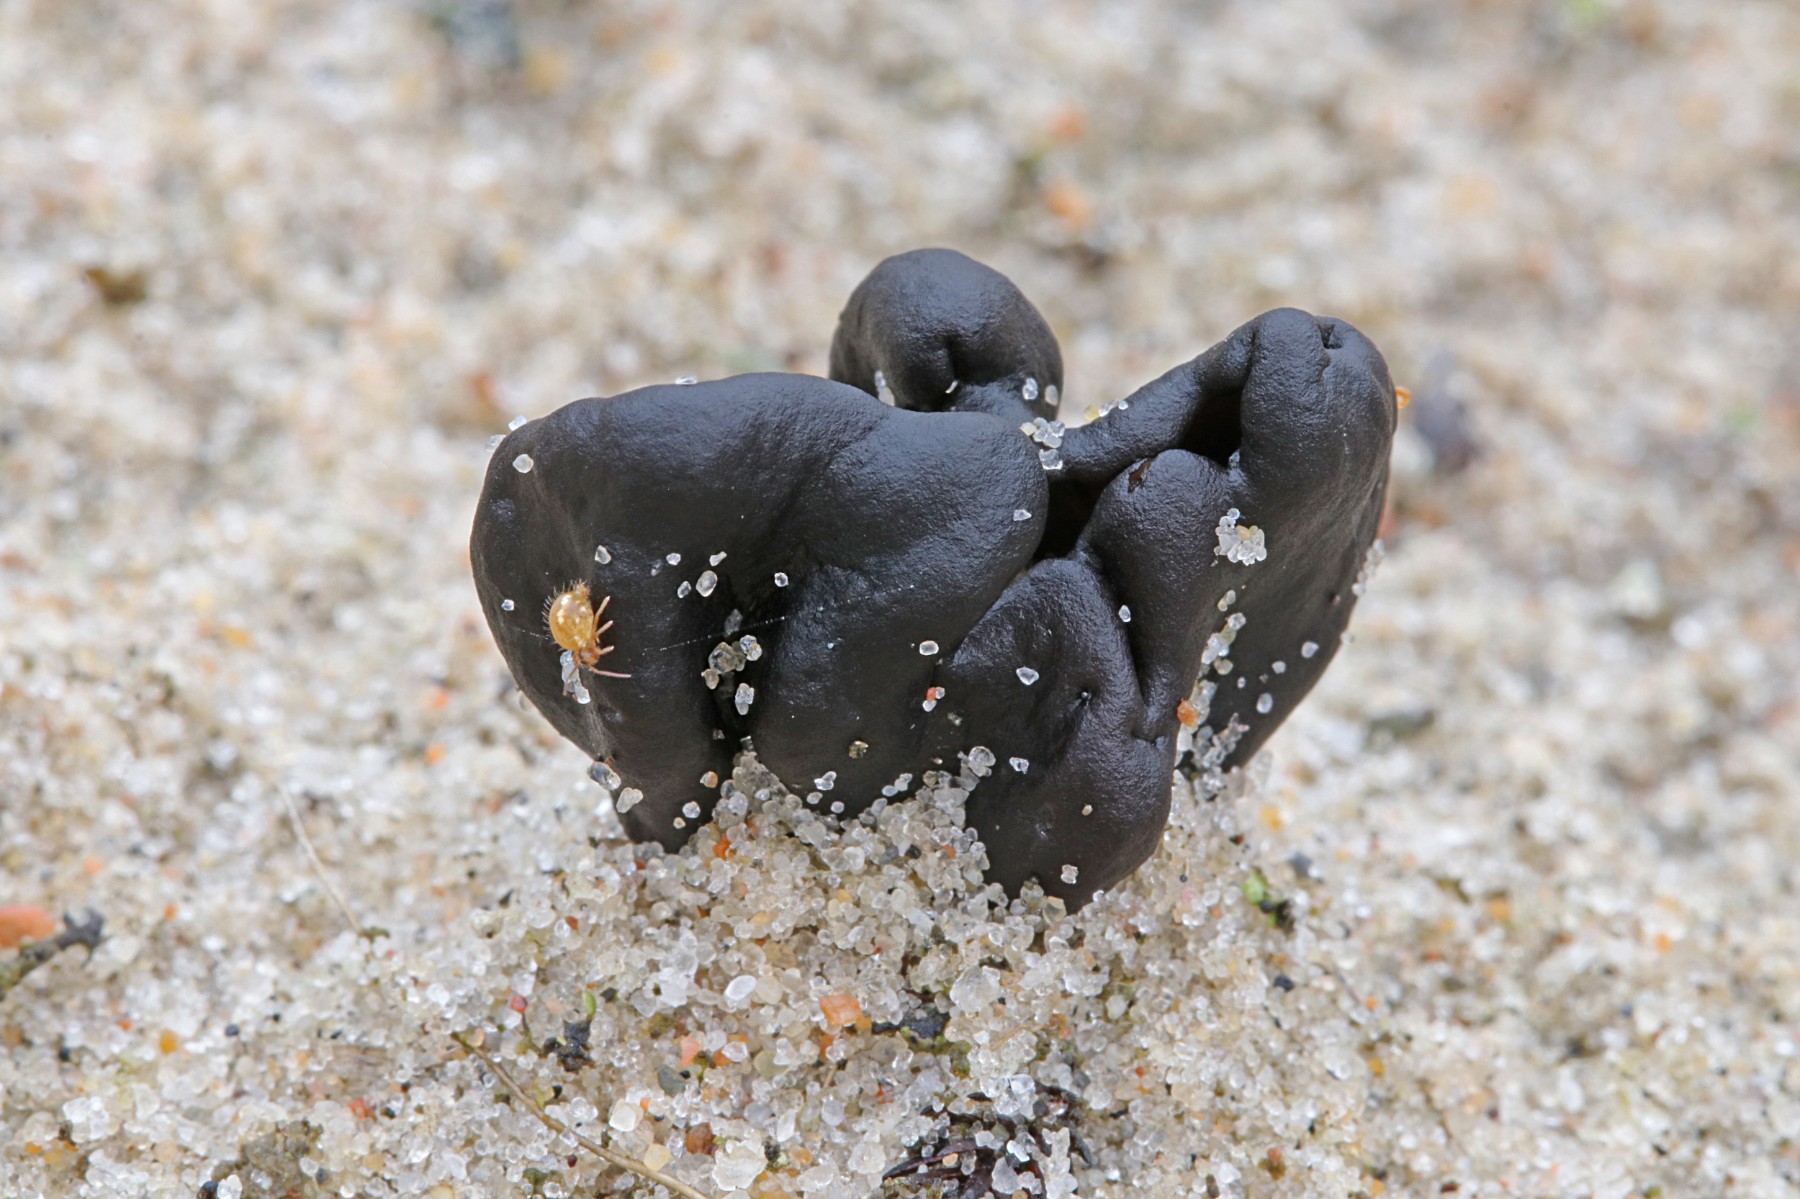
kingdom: Fungi
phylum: Ascomycota
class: Geoglossomycetes
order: Geoglossales
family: Geoglossaceae
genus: Sabuloglossum
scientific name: Sabuloglossum arenarium
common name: klit-jordtunge
